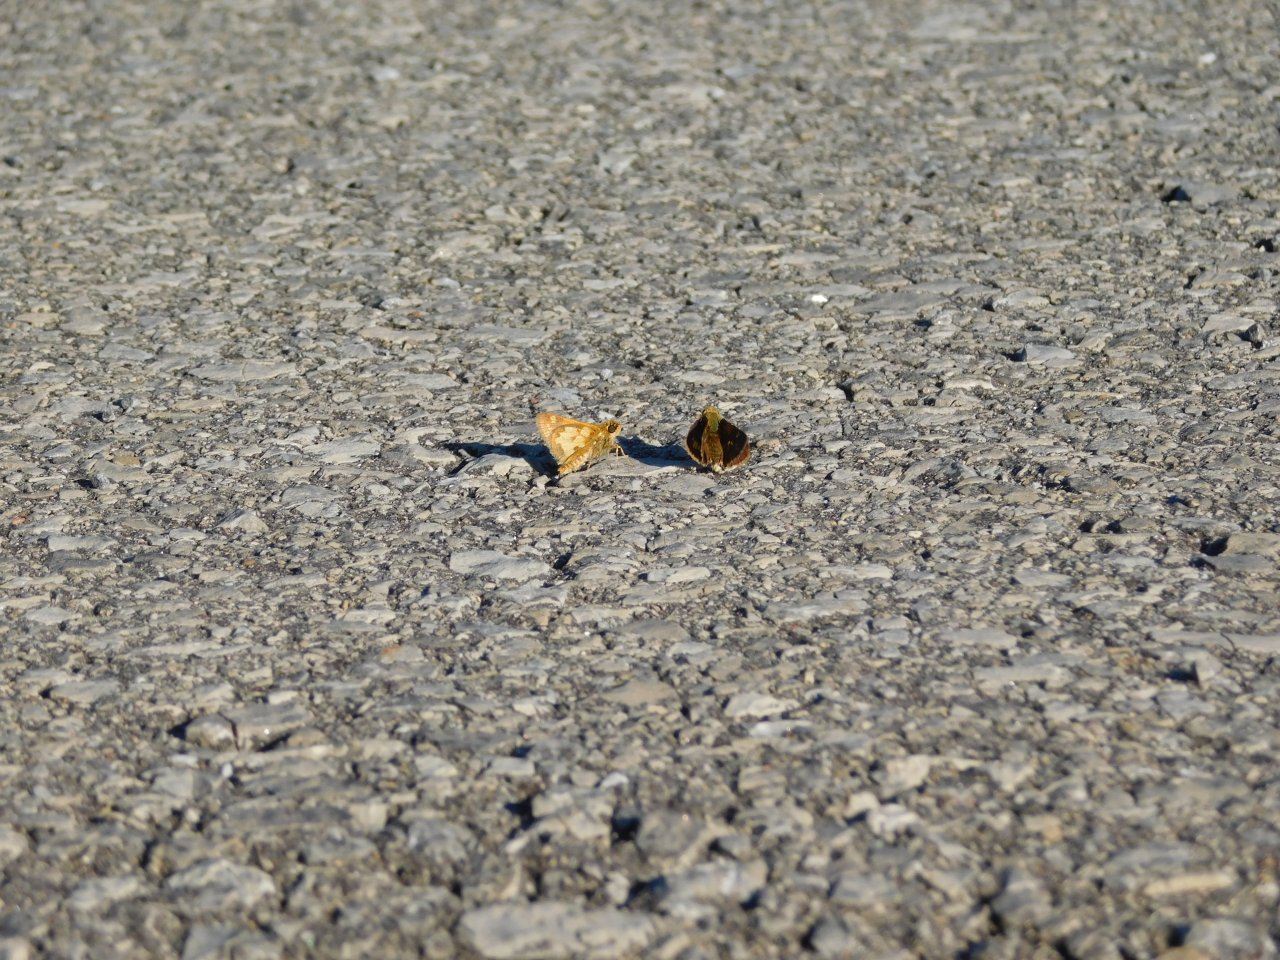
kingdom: Animalia
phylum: Arthropoda
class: Insecta
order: Lepidoptera
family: Hesperiidae
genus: Polites
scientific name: Polites coras
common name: Peck's Skipper
